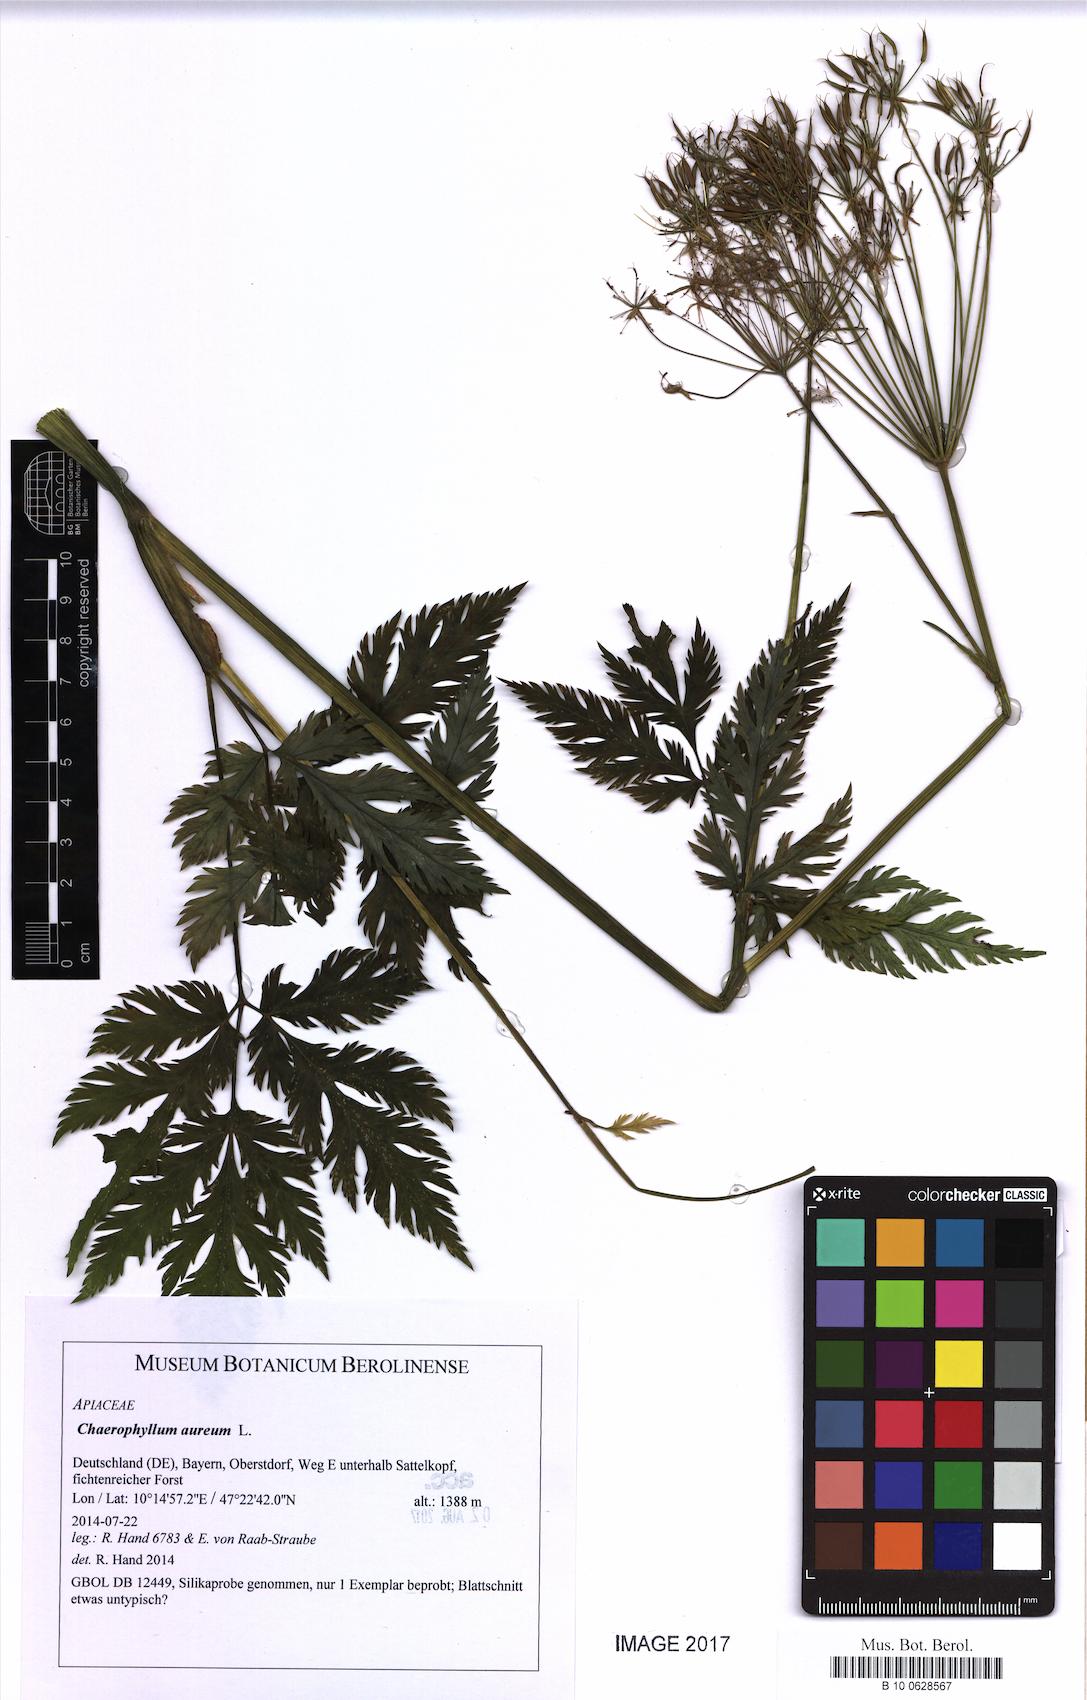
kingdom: Plantae
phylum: Tracheophyta
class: Magnoliopsida
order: Apiales
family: Apiaceae
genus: Chaerophyllum
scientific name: Chaerophyllum aureum
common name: Golden chervil
